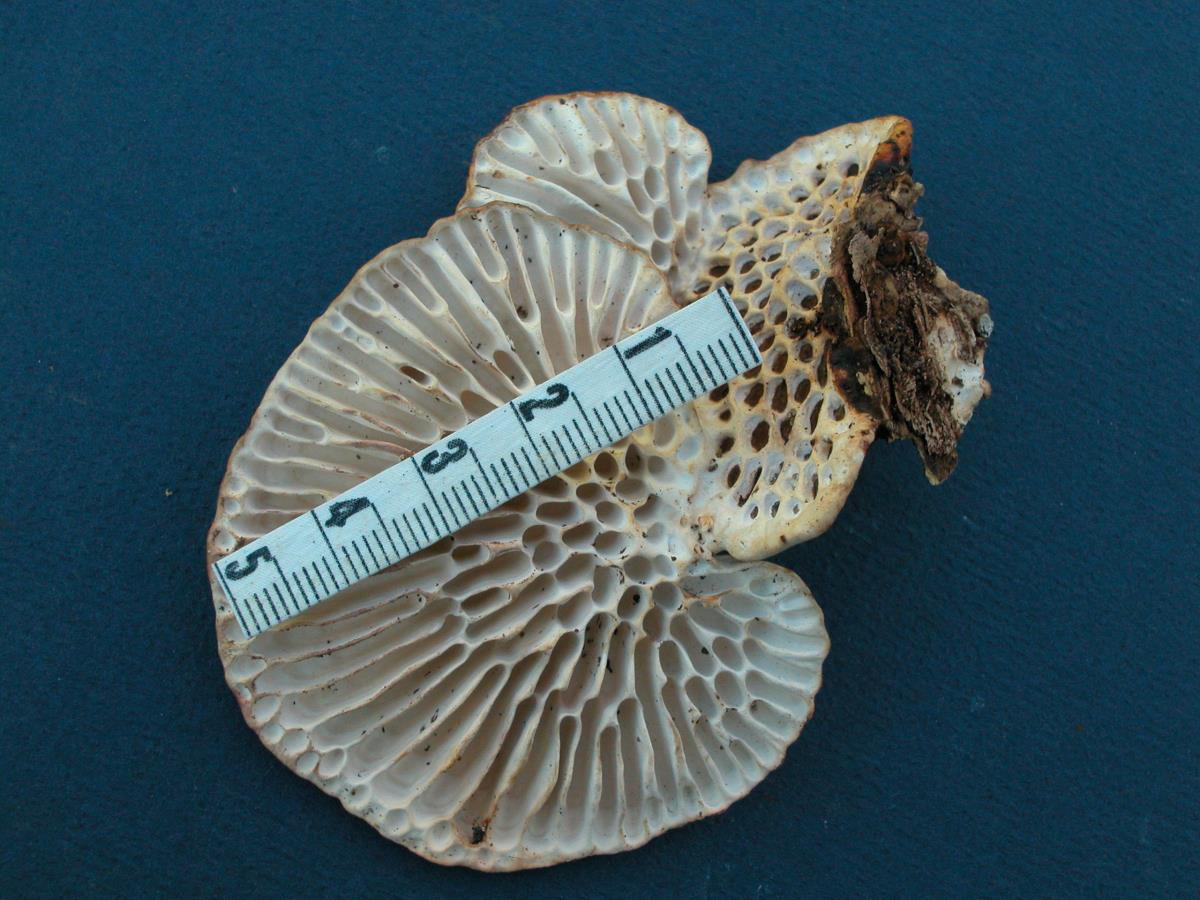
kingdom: Fungi
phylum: Basidiomycota
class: Agaricomycetes
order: Polyporales
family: Polyporaceae
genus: Daedaleopsis
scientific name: Daedaleopsis
